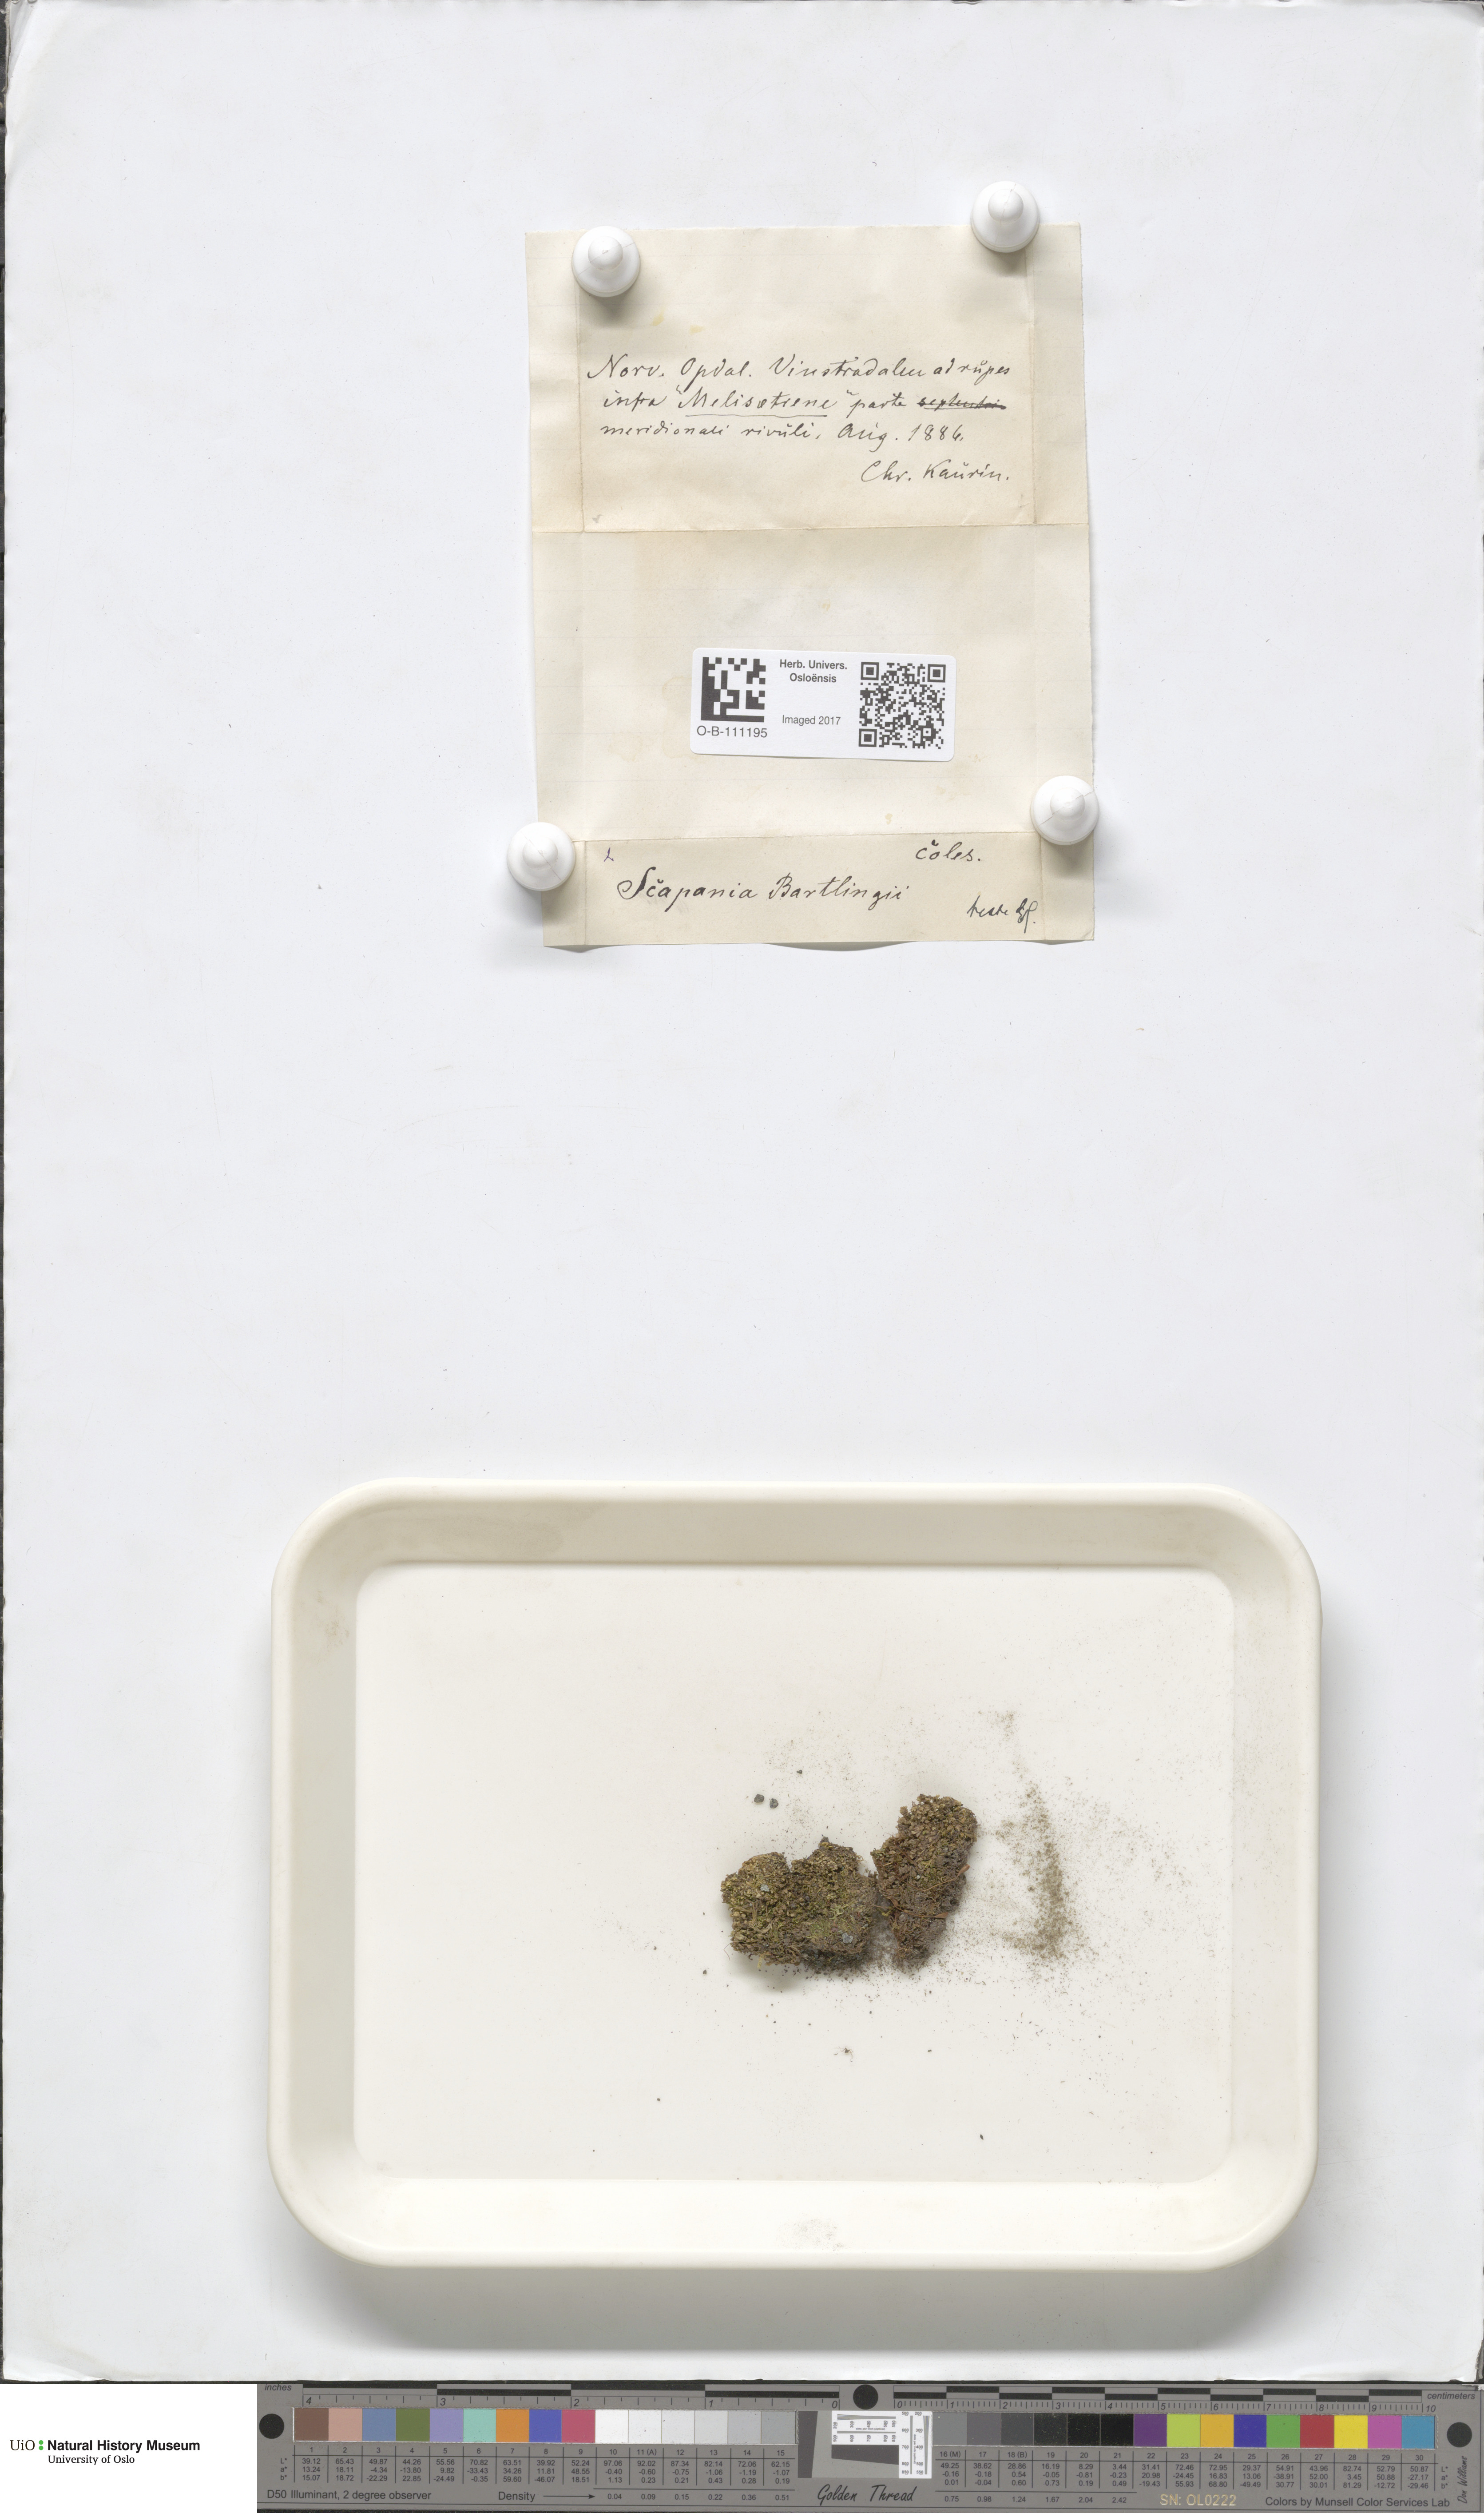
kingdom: Plantae
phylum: Marchantiophyta
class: Jungermanniopsida
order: Jungermanniales
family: Scapaniaceae
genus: Scapania
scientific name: Scapania cuspiduligera
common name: Untidy earwort
